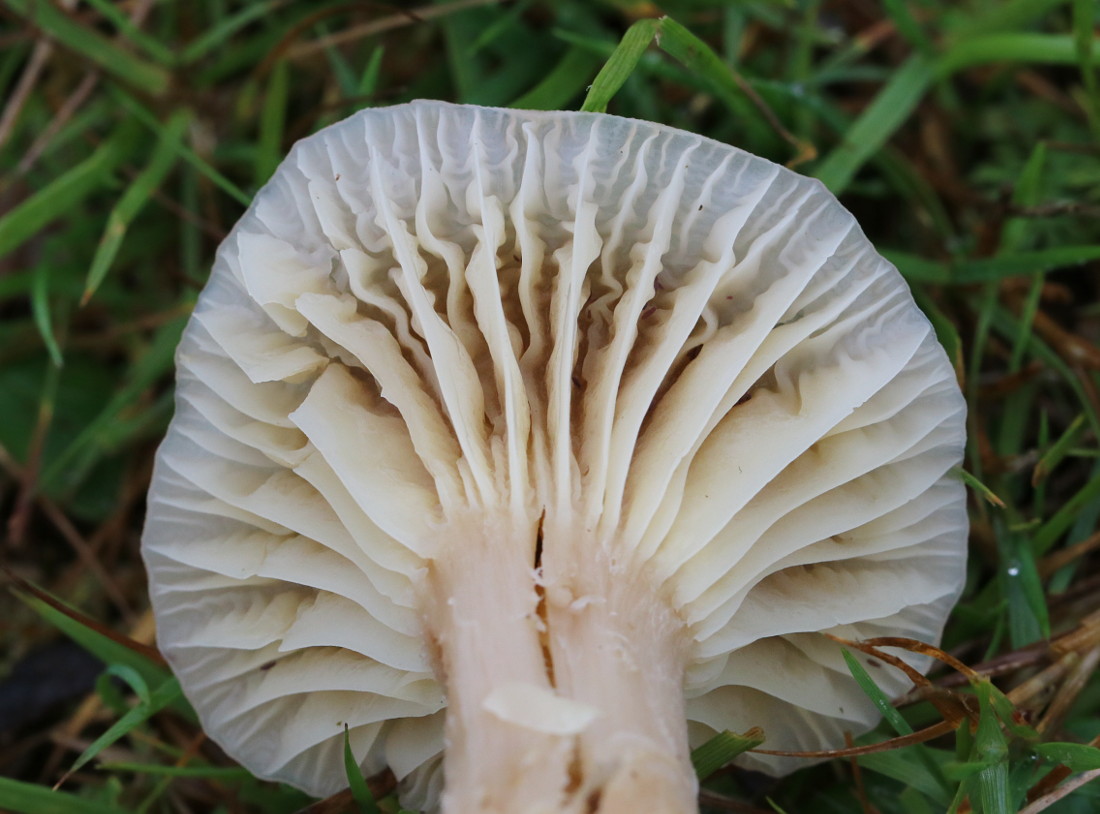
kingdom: Fungi
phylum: Basidiomycota
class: Agaricomycetes
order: Agaricales
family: Hygrophoraceae
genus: Cuphophyllus
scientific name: Cuphophyllus flavipes
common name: gulfodet vokshat
